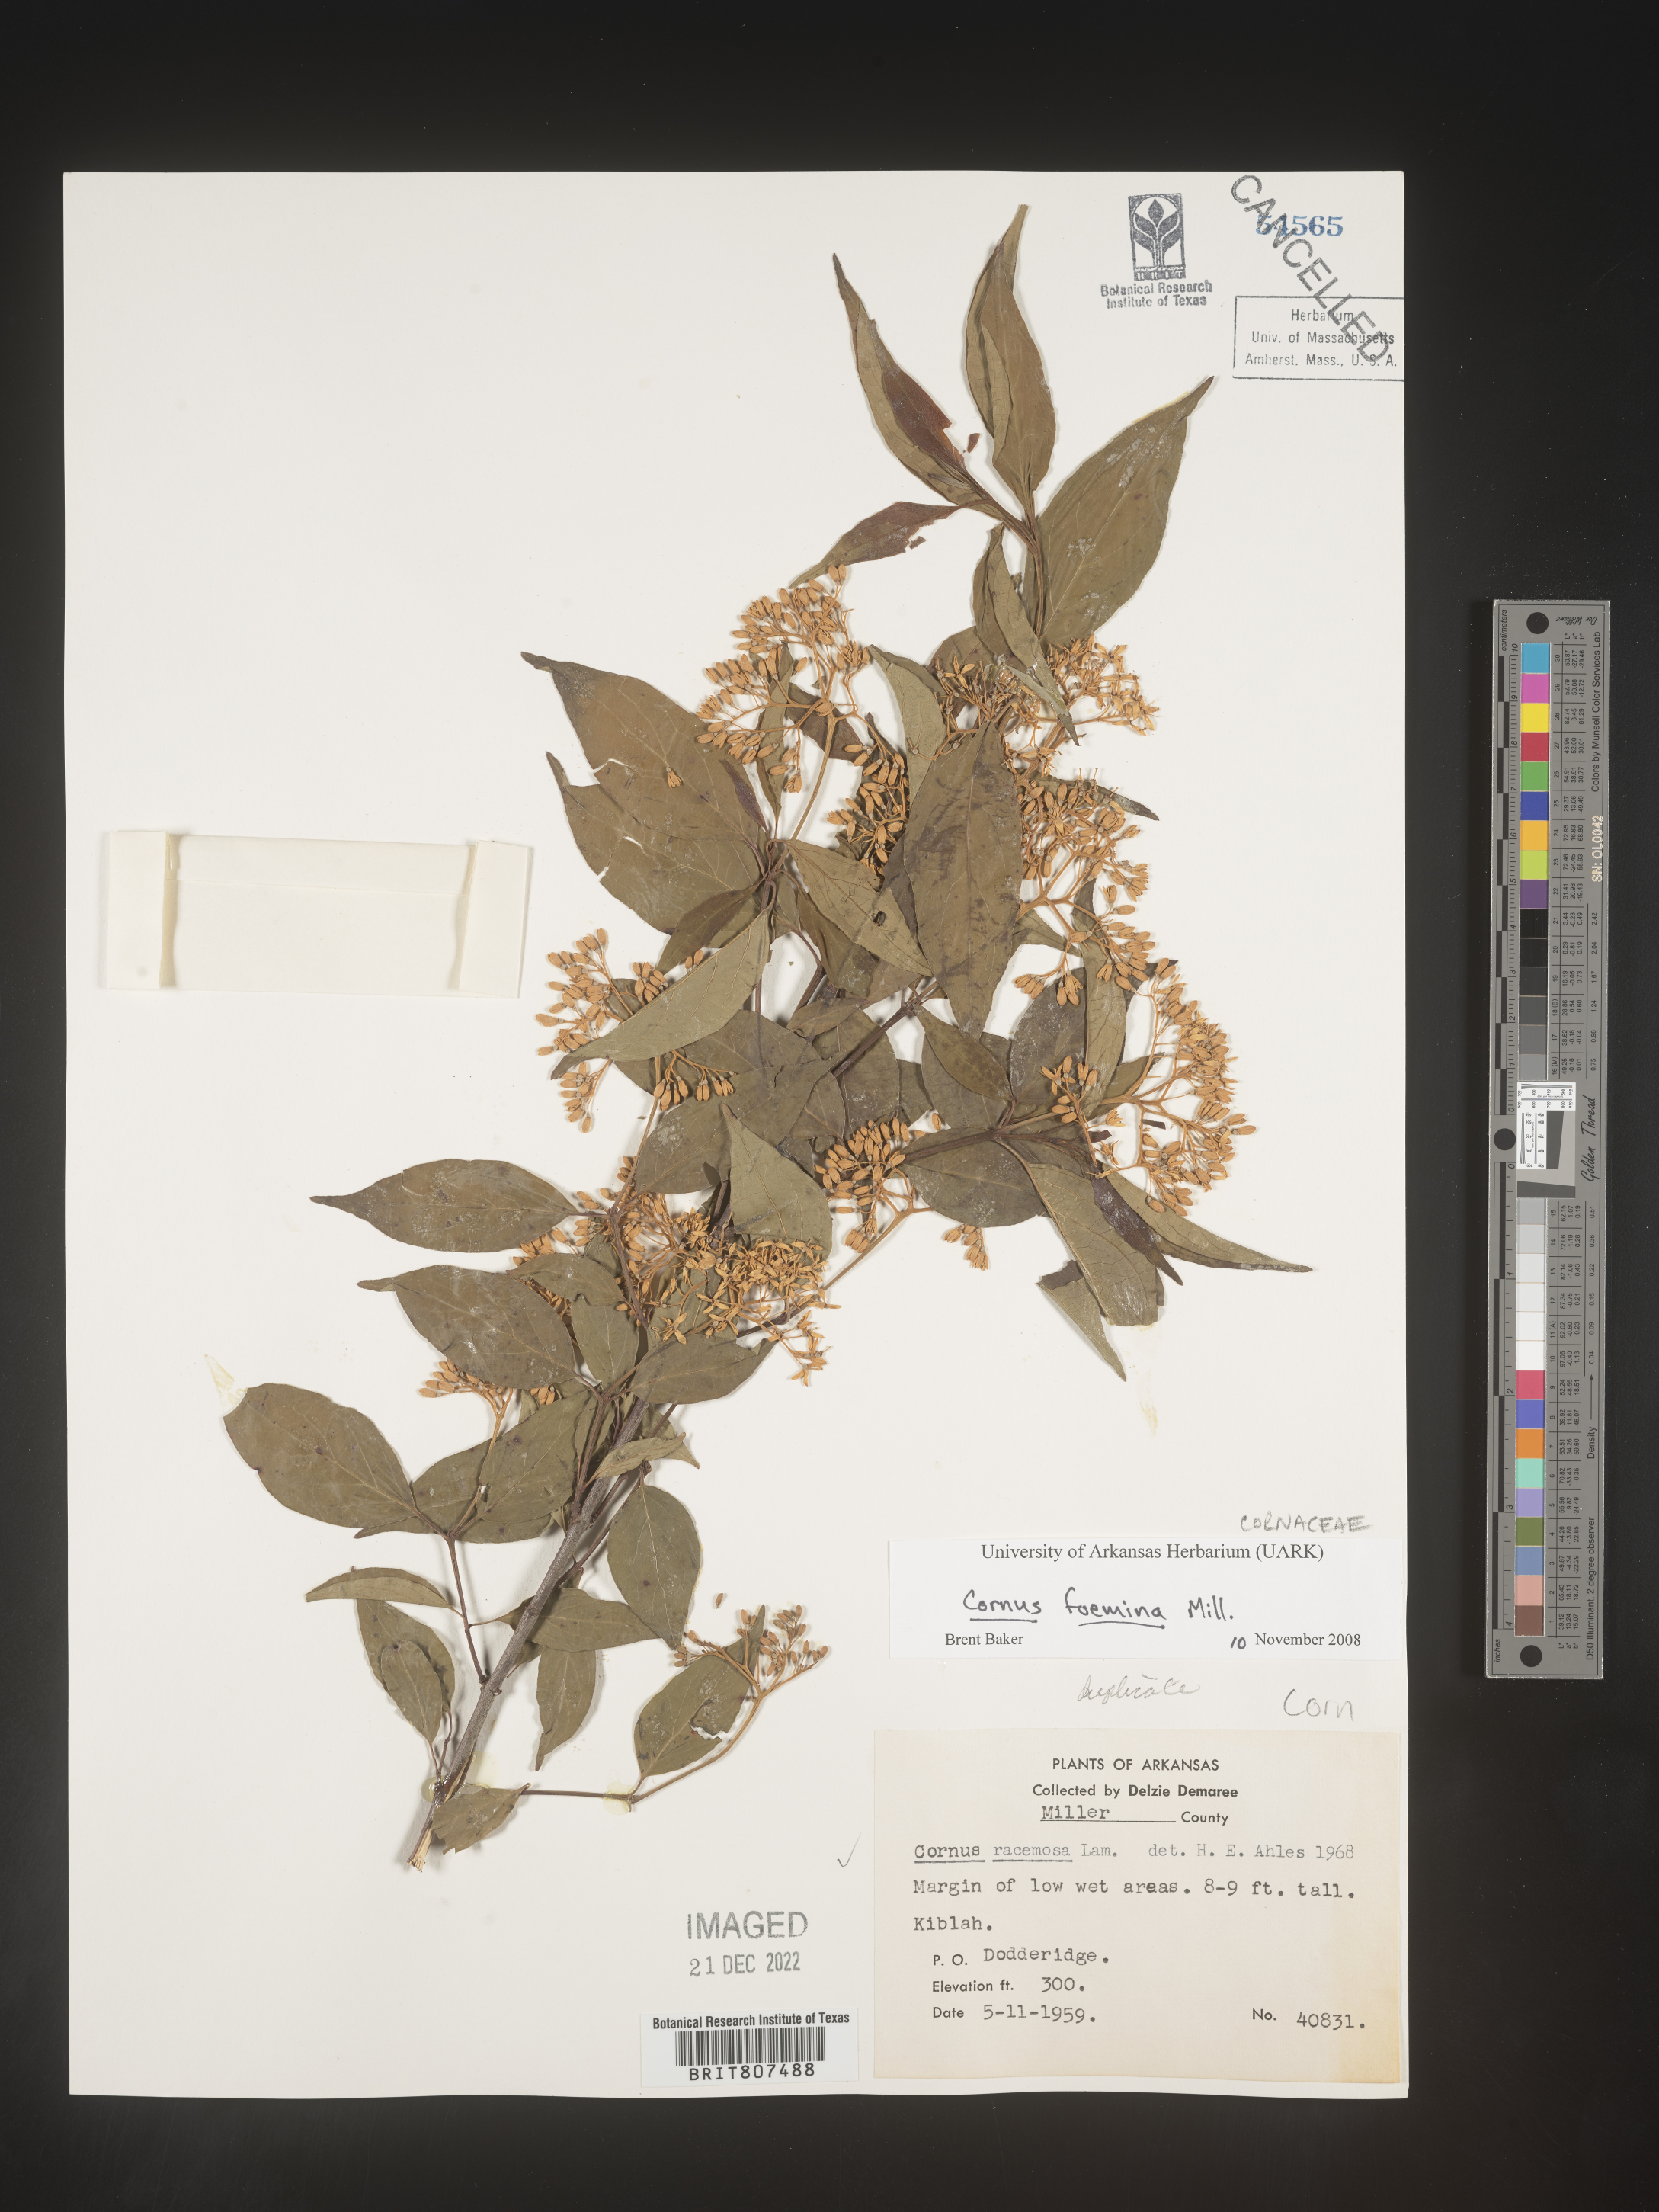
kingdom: Plantae
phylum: Tracheophyta
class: Magnoliopsida
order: Cornales
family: Cornaceae
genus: Cornus
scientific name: Cornus foemina
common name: Swamp dogwood
